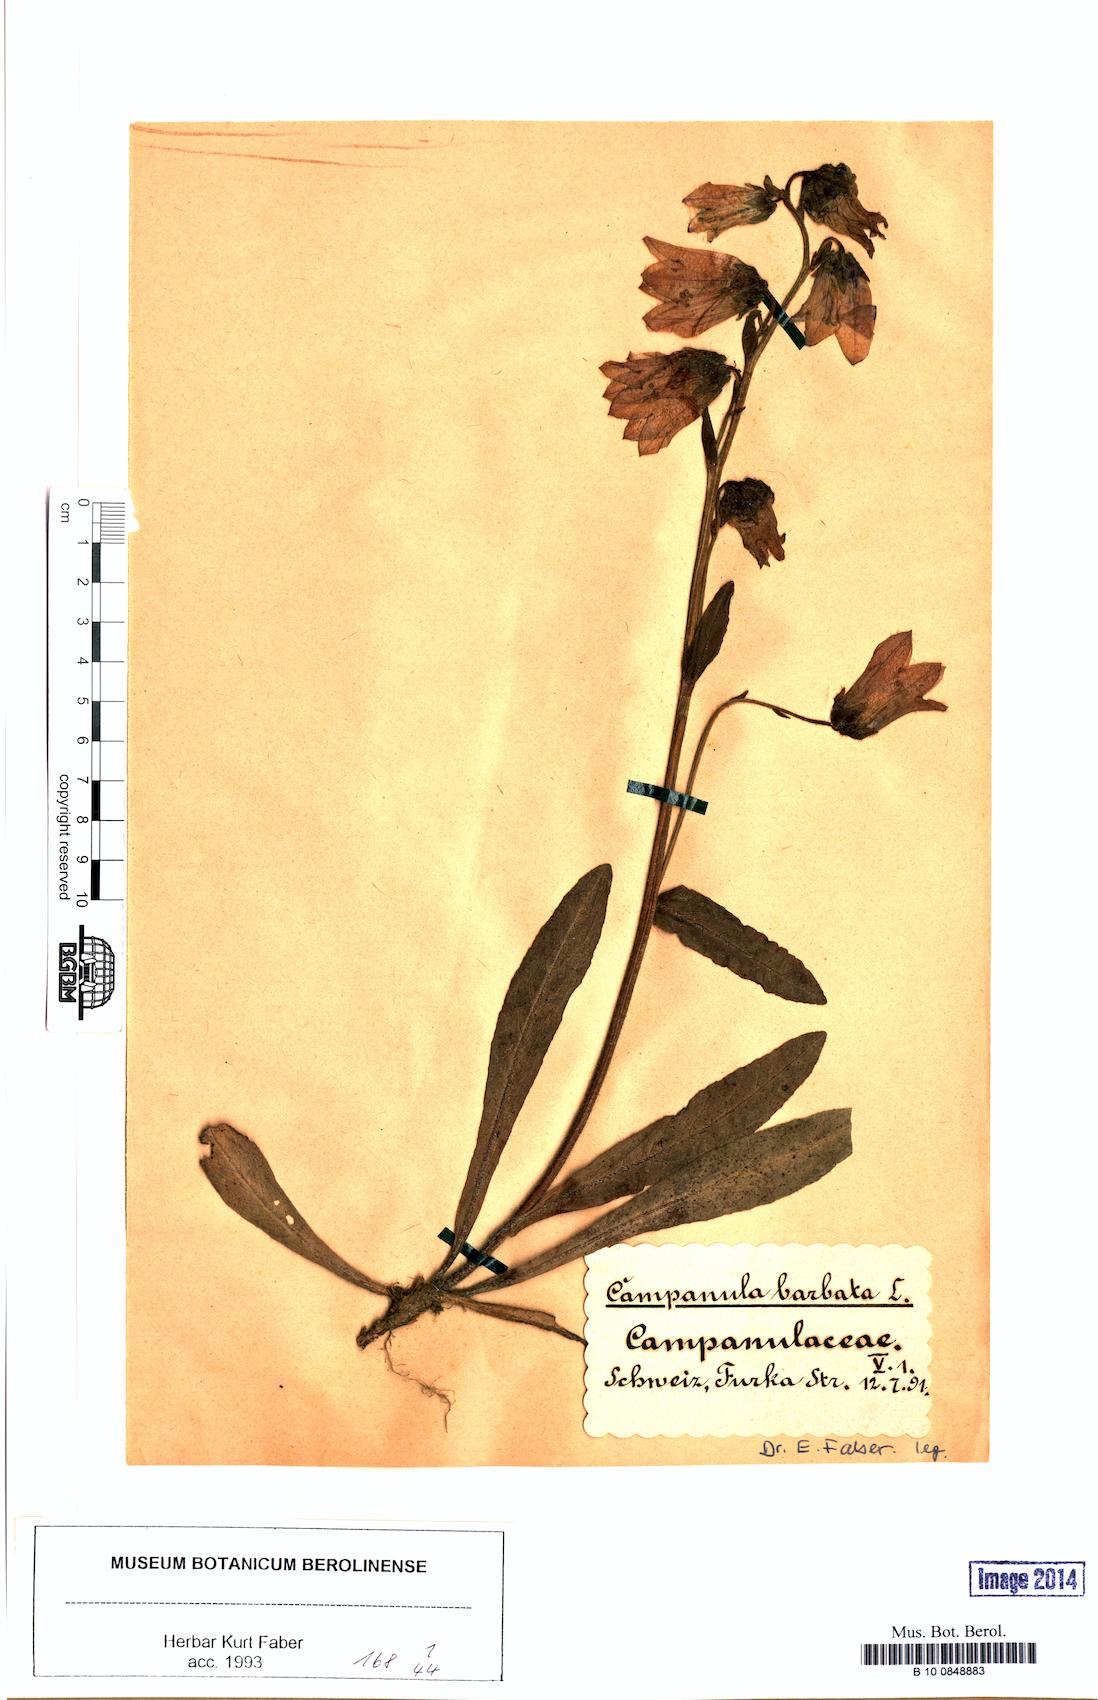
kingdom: Plantae
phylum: Tracheophyta
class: Magnoliopsida
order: Asterales
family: Campanulaceae
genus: Campanula
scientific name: Campanula barbata
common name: Bearded bellflower
